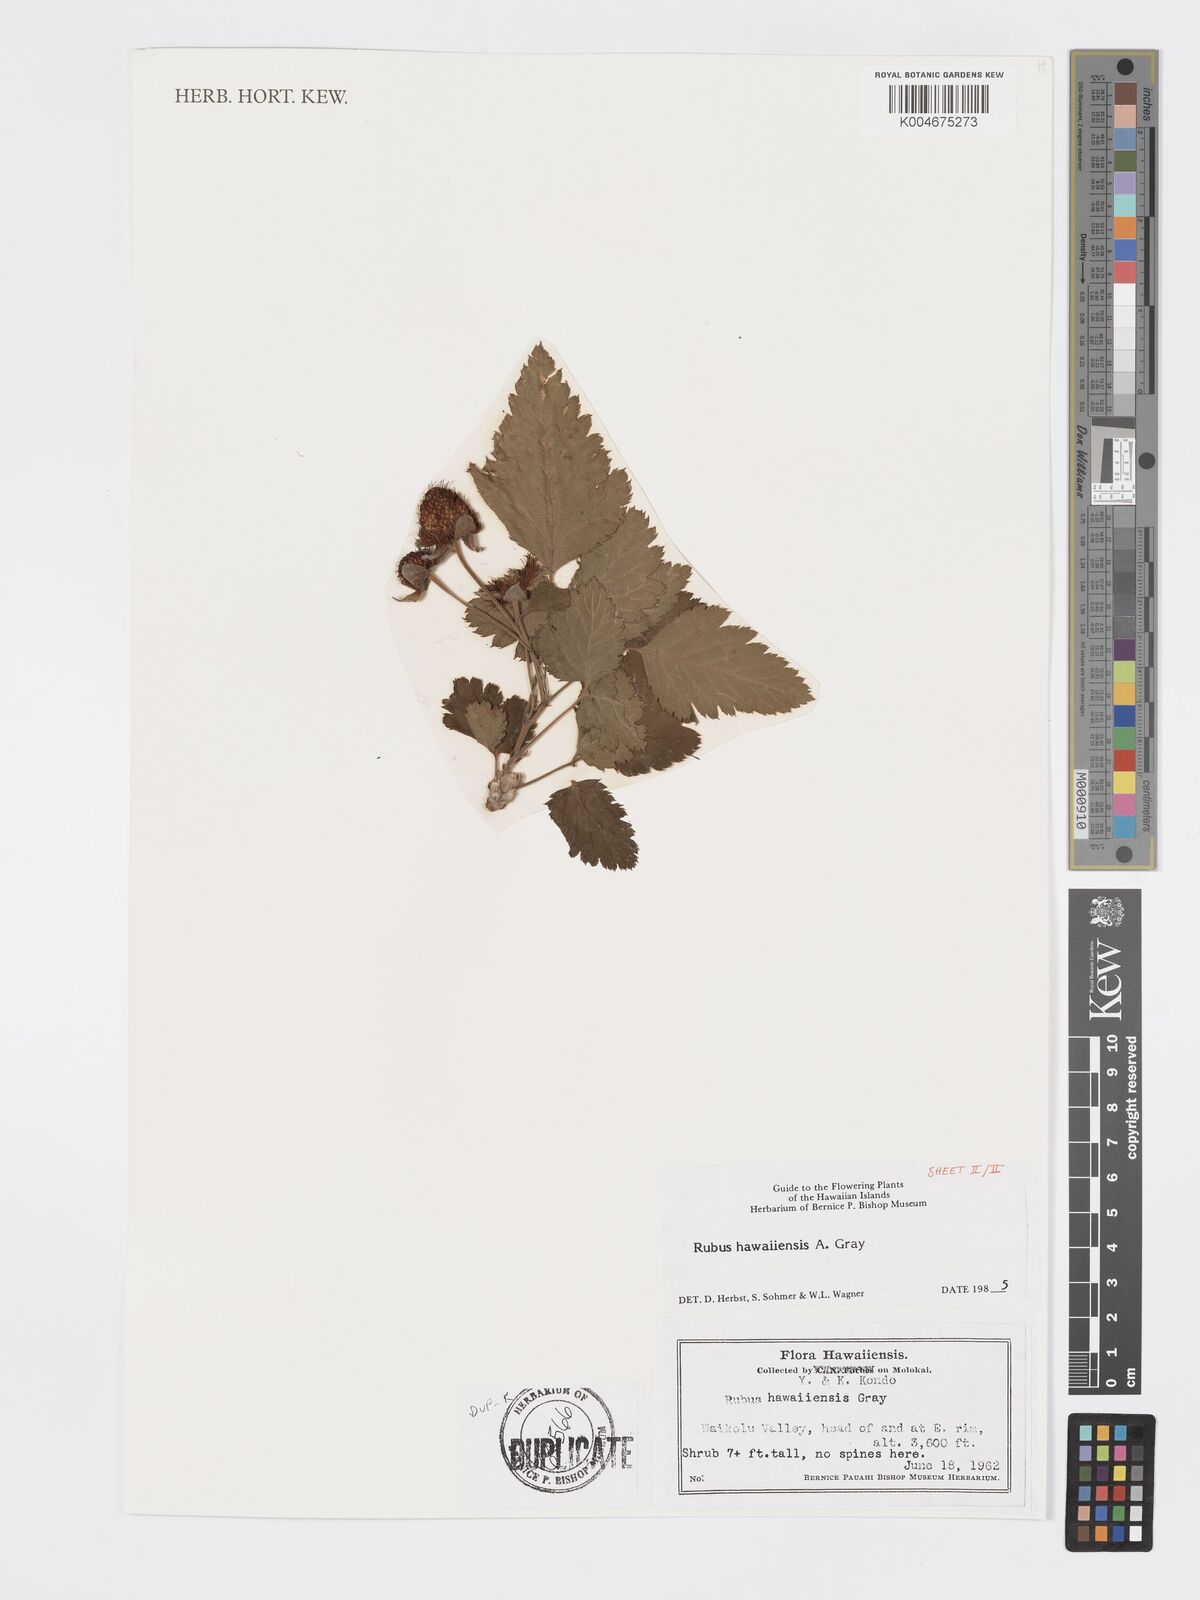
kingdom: Plantae
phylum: Tracheophyta
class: Magnoliopsida
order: Rosales
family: Rosaceae
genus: Rubus
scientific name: Rubus hawaiensis
